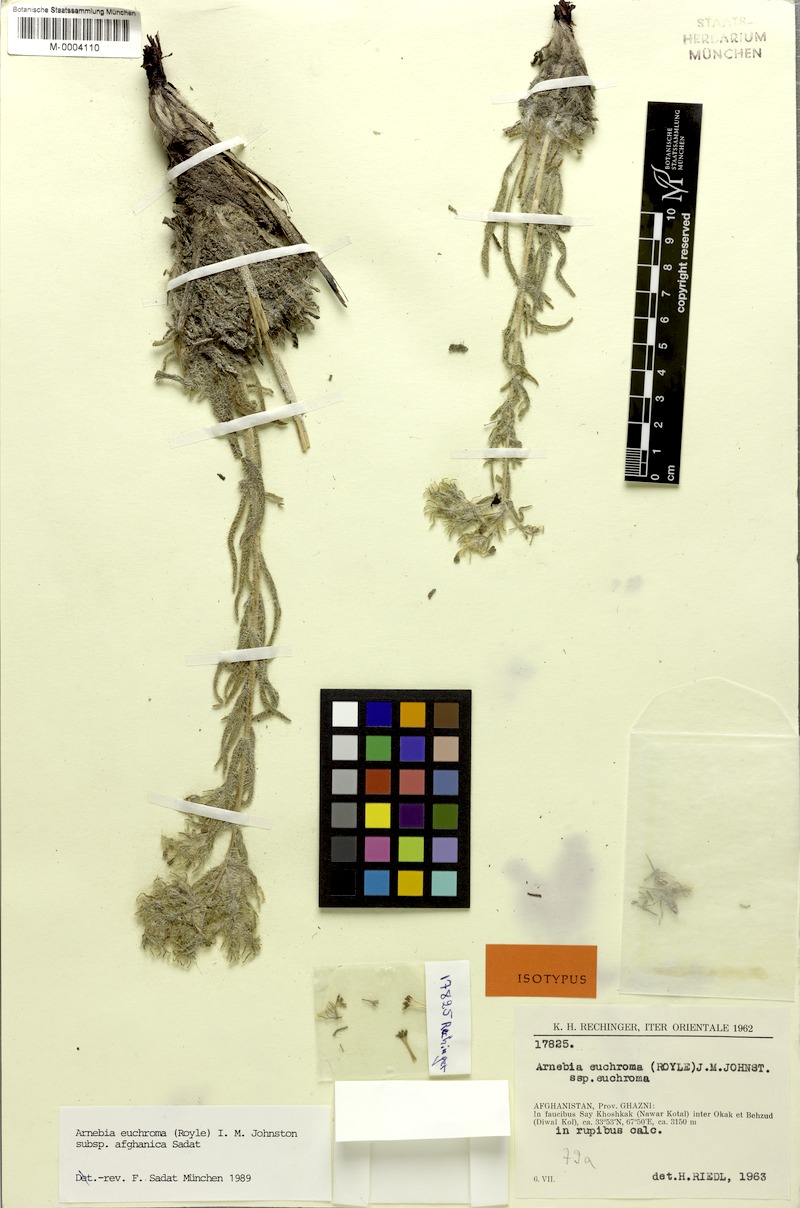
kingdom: Plantae
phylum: Tracheophyta
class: Magnoliopsida
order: Boraginales
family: Boraginaceae
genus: Arnebia
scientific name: Arnebia euchroma
